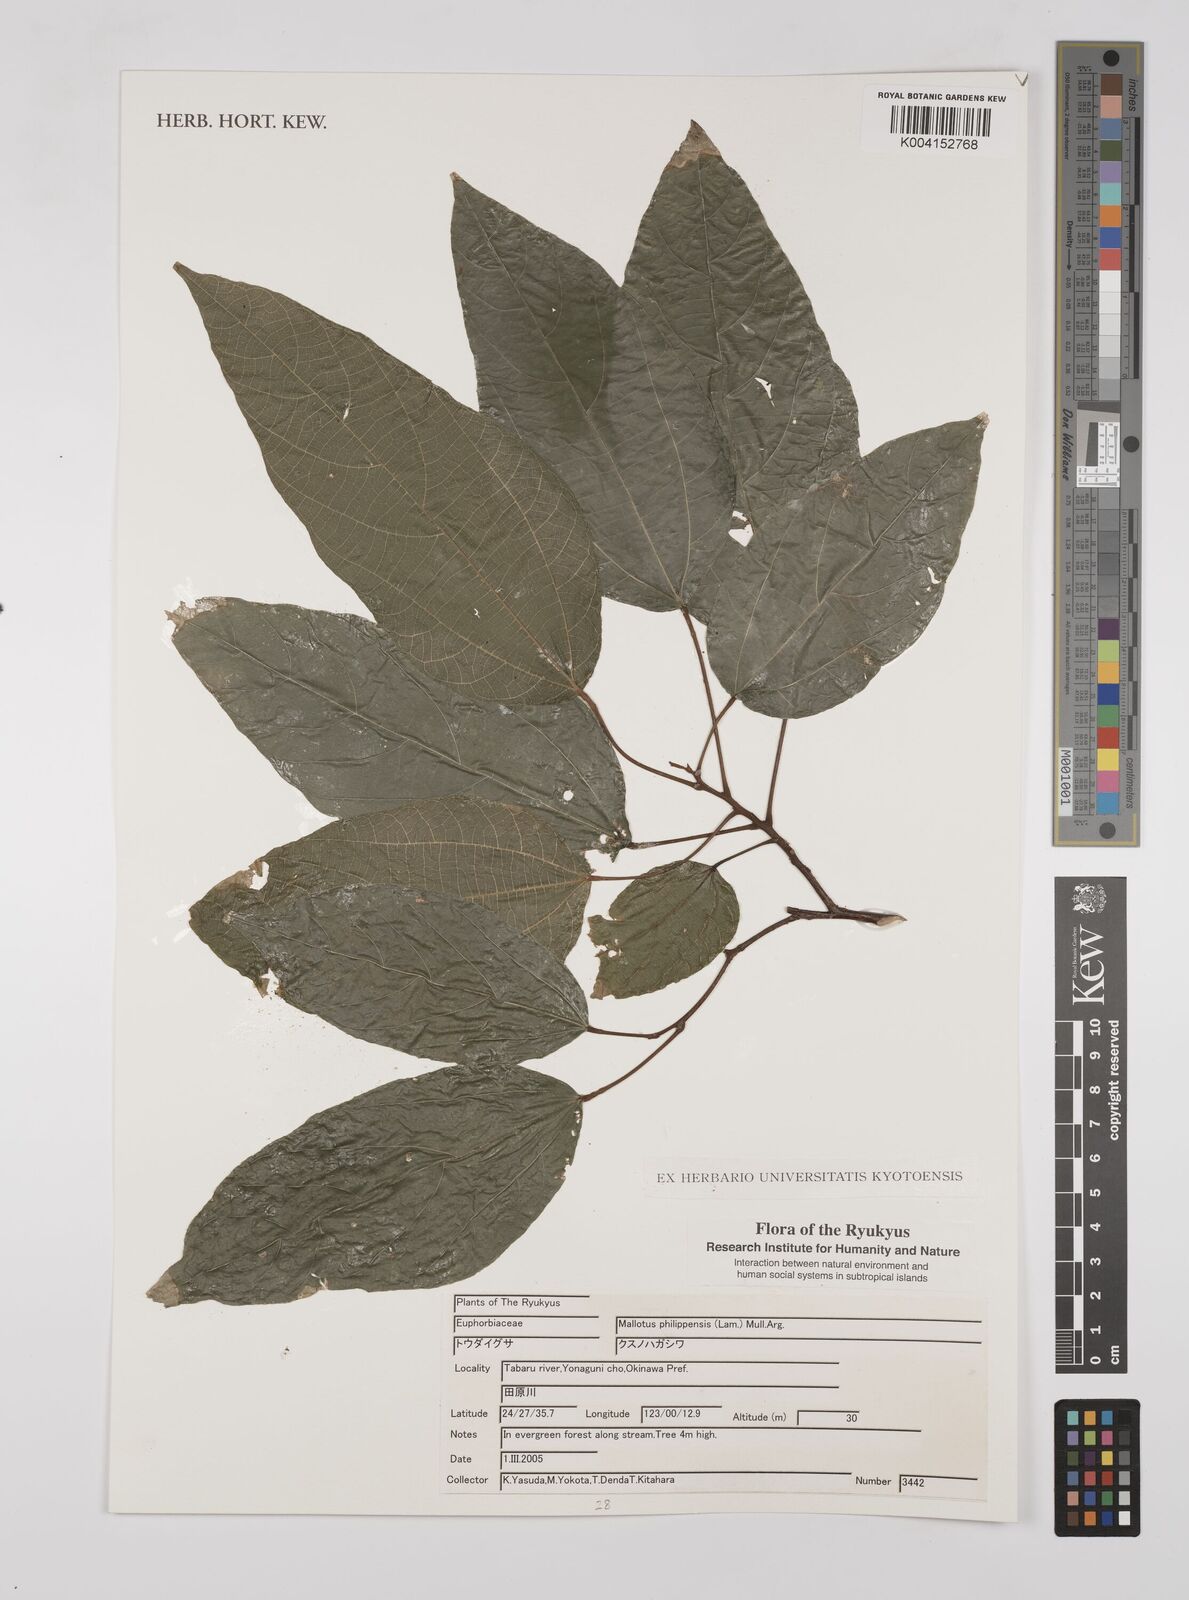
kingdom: Plantae
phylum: Tracheophyta
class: Magnoliopsida
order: Malpighiales
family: Euphorbiaceae
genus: Mallotus
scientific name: Mallotus philippensis
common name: Kamala tree
